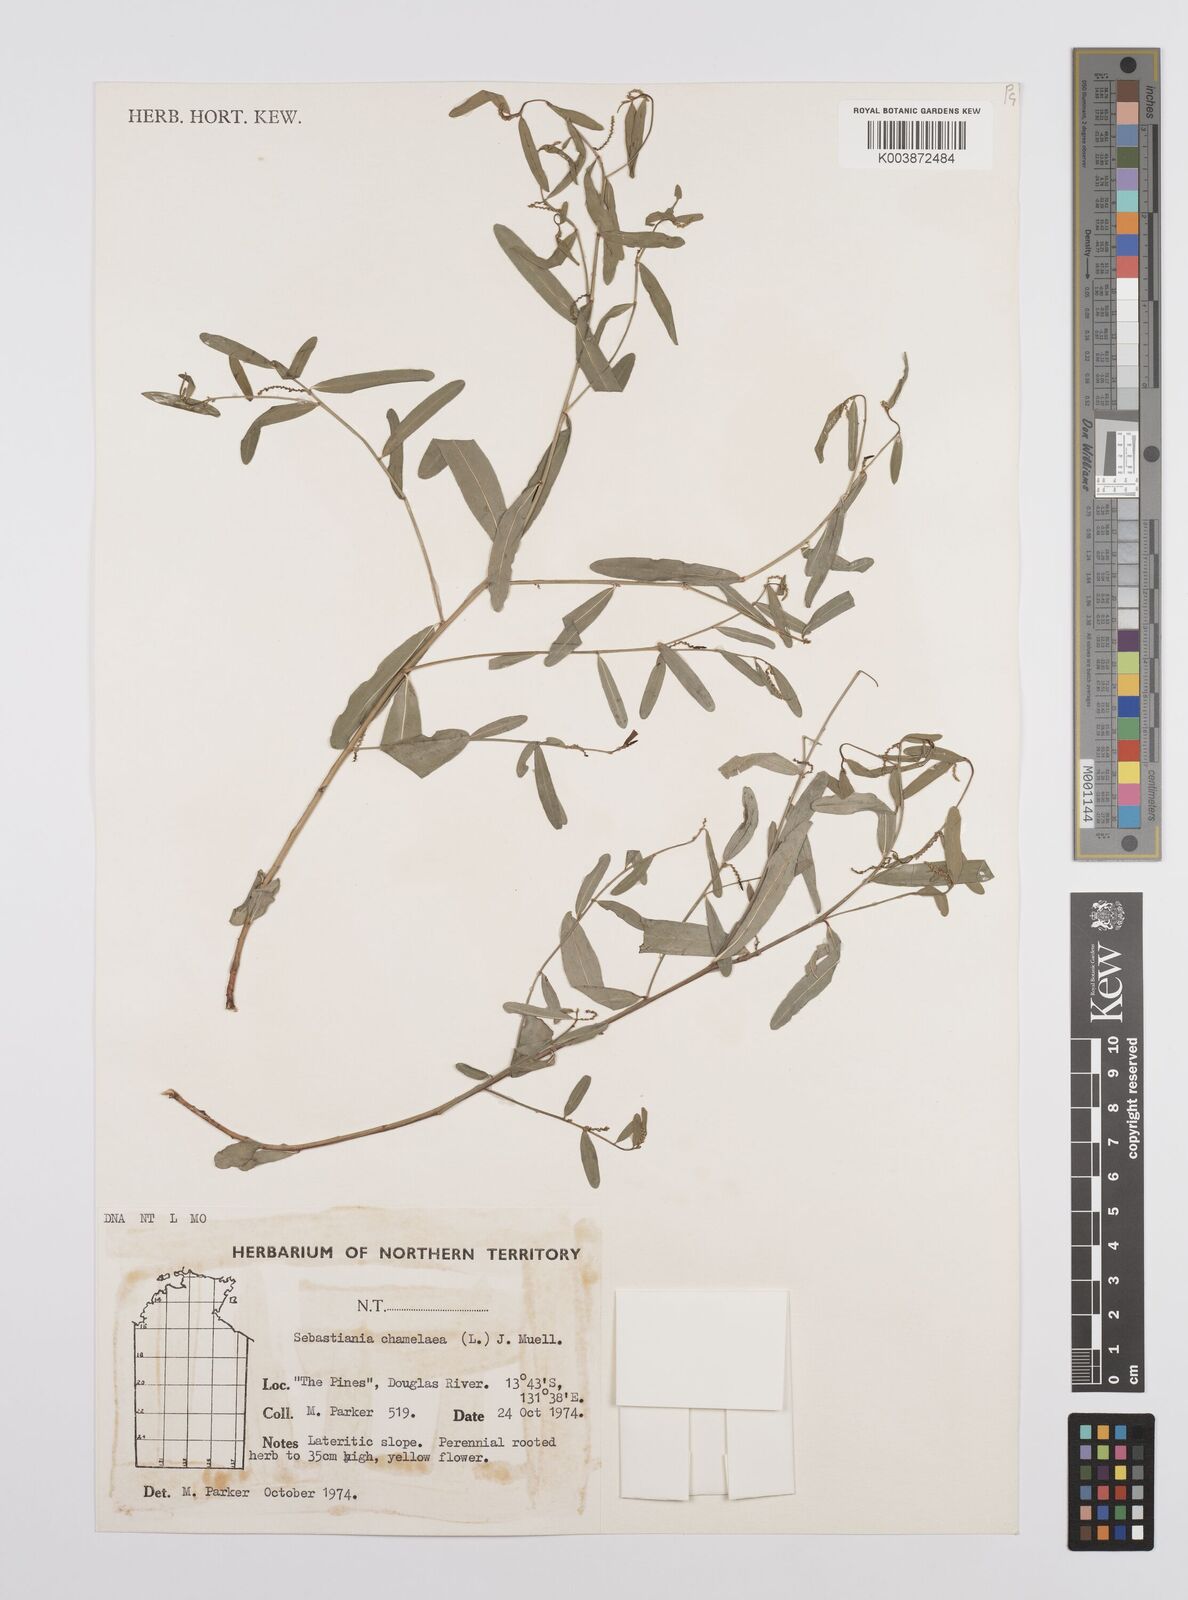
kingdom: Plantae
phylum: Tracheophyta
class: Magnoliopsida
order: Malpighiales
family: Euphorbiaceae
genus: Microstachys
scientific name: Microstachys chamaelea
